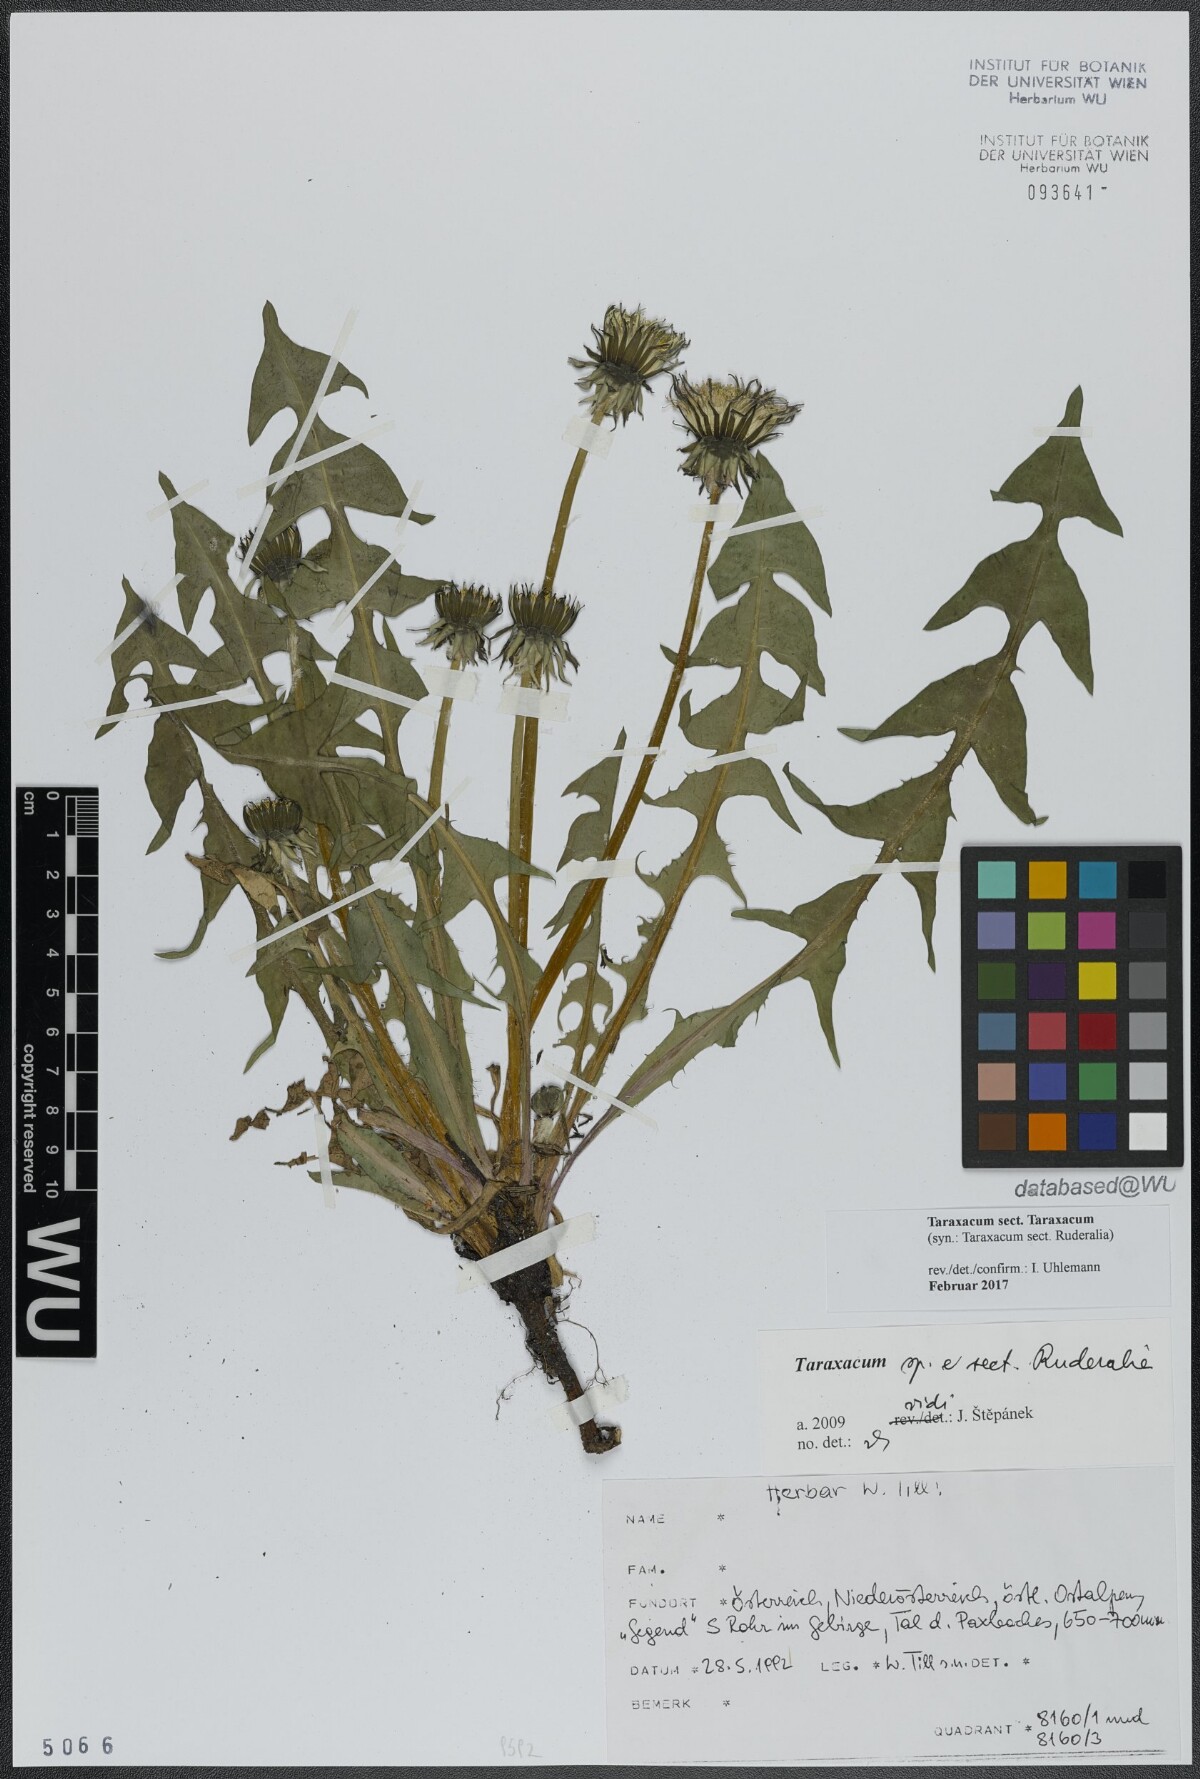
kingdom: Plantae
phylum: Tracheophyta
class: Magnoliopsida
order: Asterales
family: Asteraceae
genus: Taraxacum
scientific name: Taraxacum
